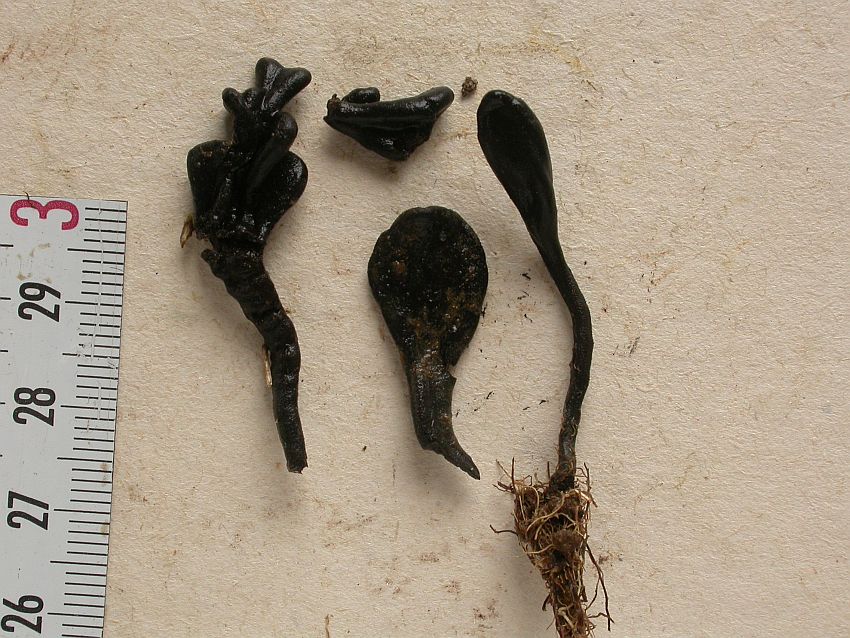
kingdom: Fungi
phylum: Ascomycota
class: Geoglossomycetes
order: Geoglossales
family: Geoglossaceae
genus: Trichoglossum
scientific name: Trichoglossum variabile
